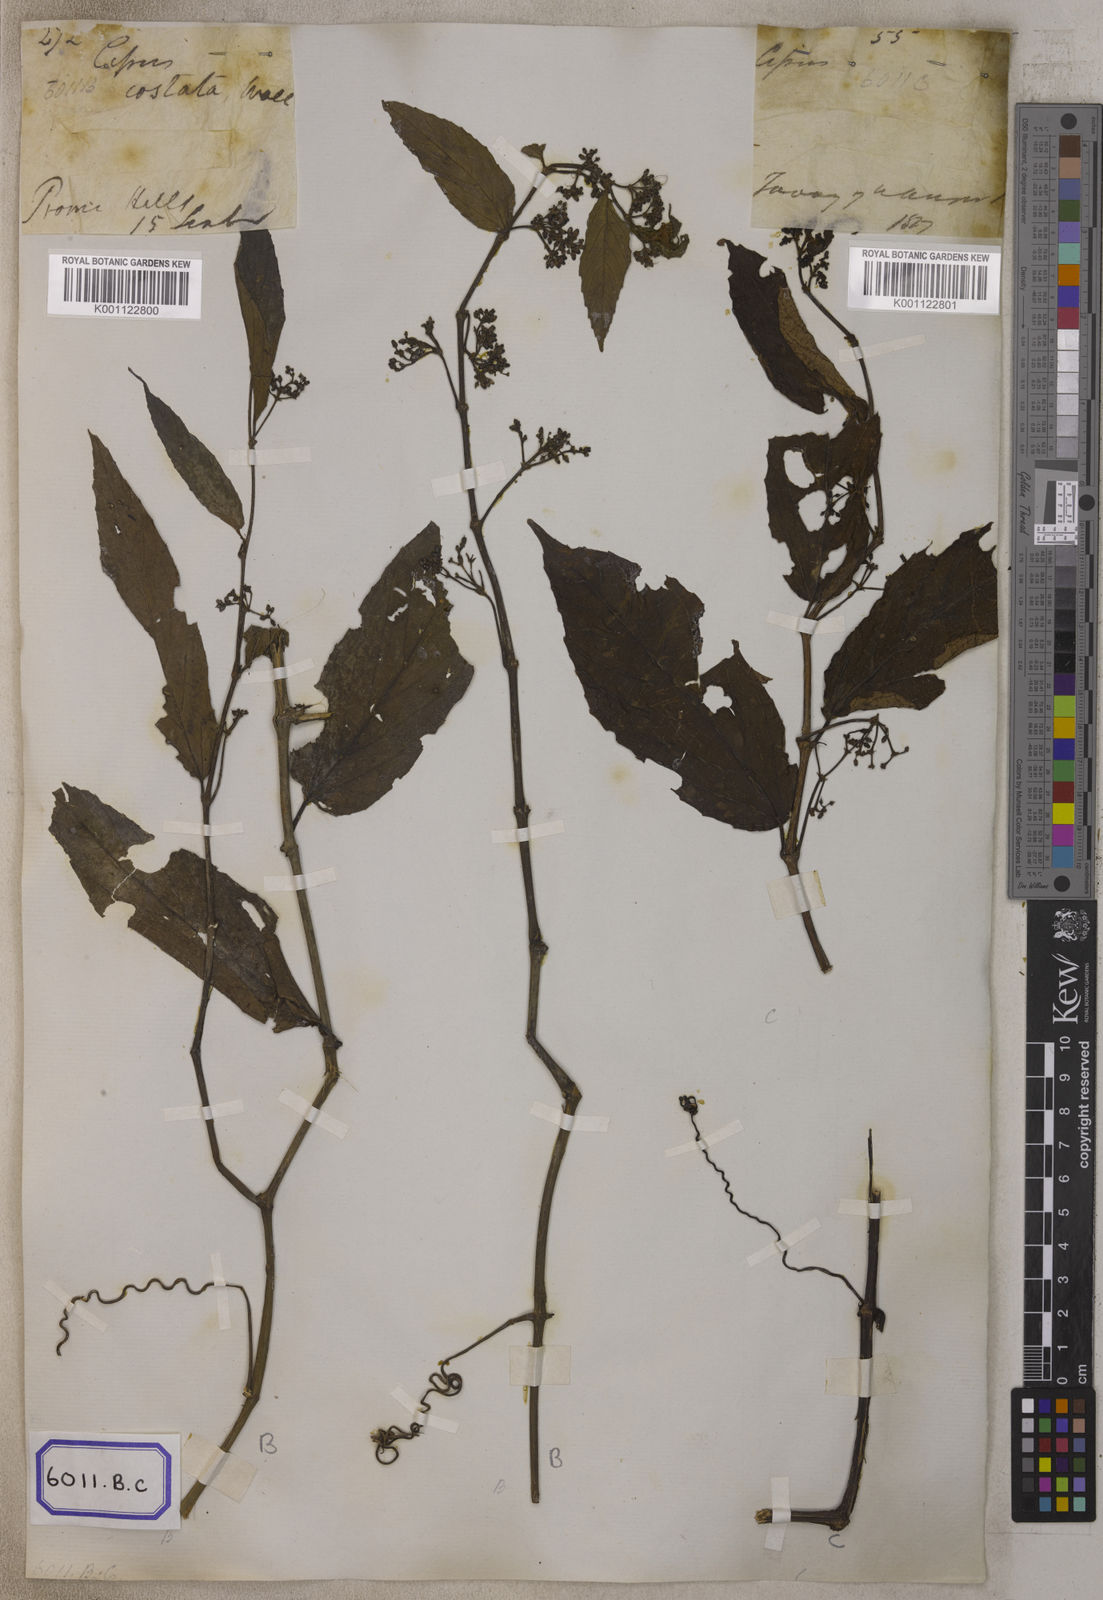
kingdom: Plantae
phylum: Tracheophyta
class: Magnoliopsida
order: Vitales
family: Vitaceae
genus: Cissus
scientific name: Cissus discolor
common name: Climbing-begonia
